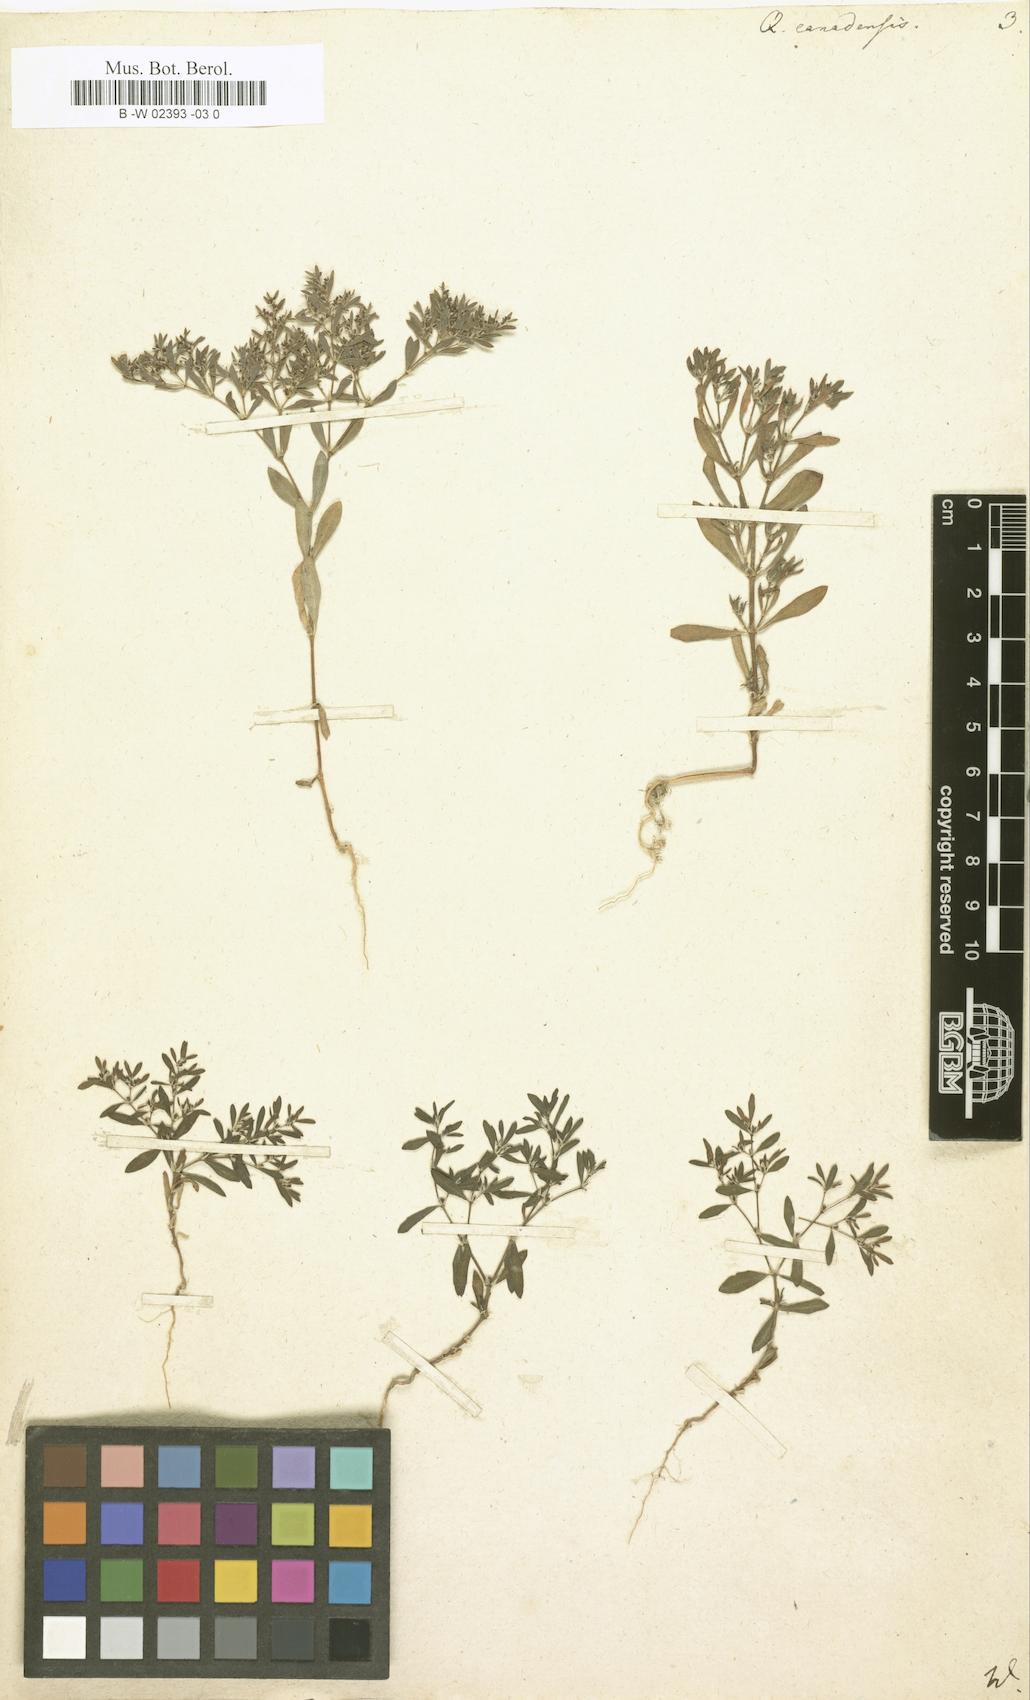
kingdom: Plantae
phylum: Tracheophyta
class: Magnoliopsida
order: Caryophyllales
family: Caryophyllaceae
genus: Paronychia
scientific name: Paronychia canadensis
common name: Canada forked nailwort
